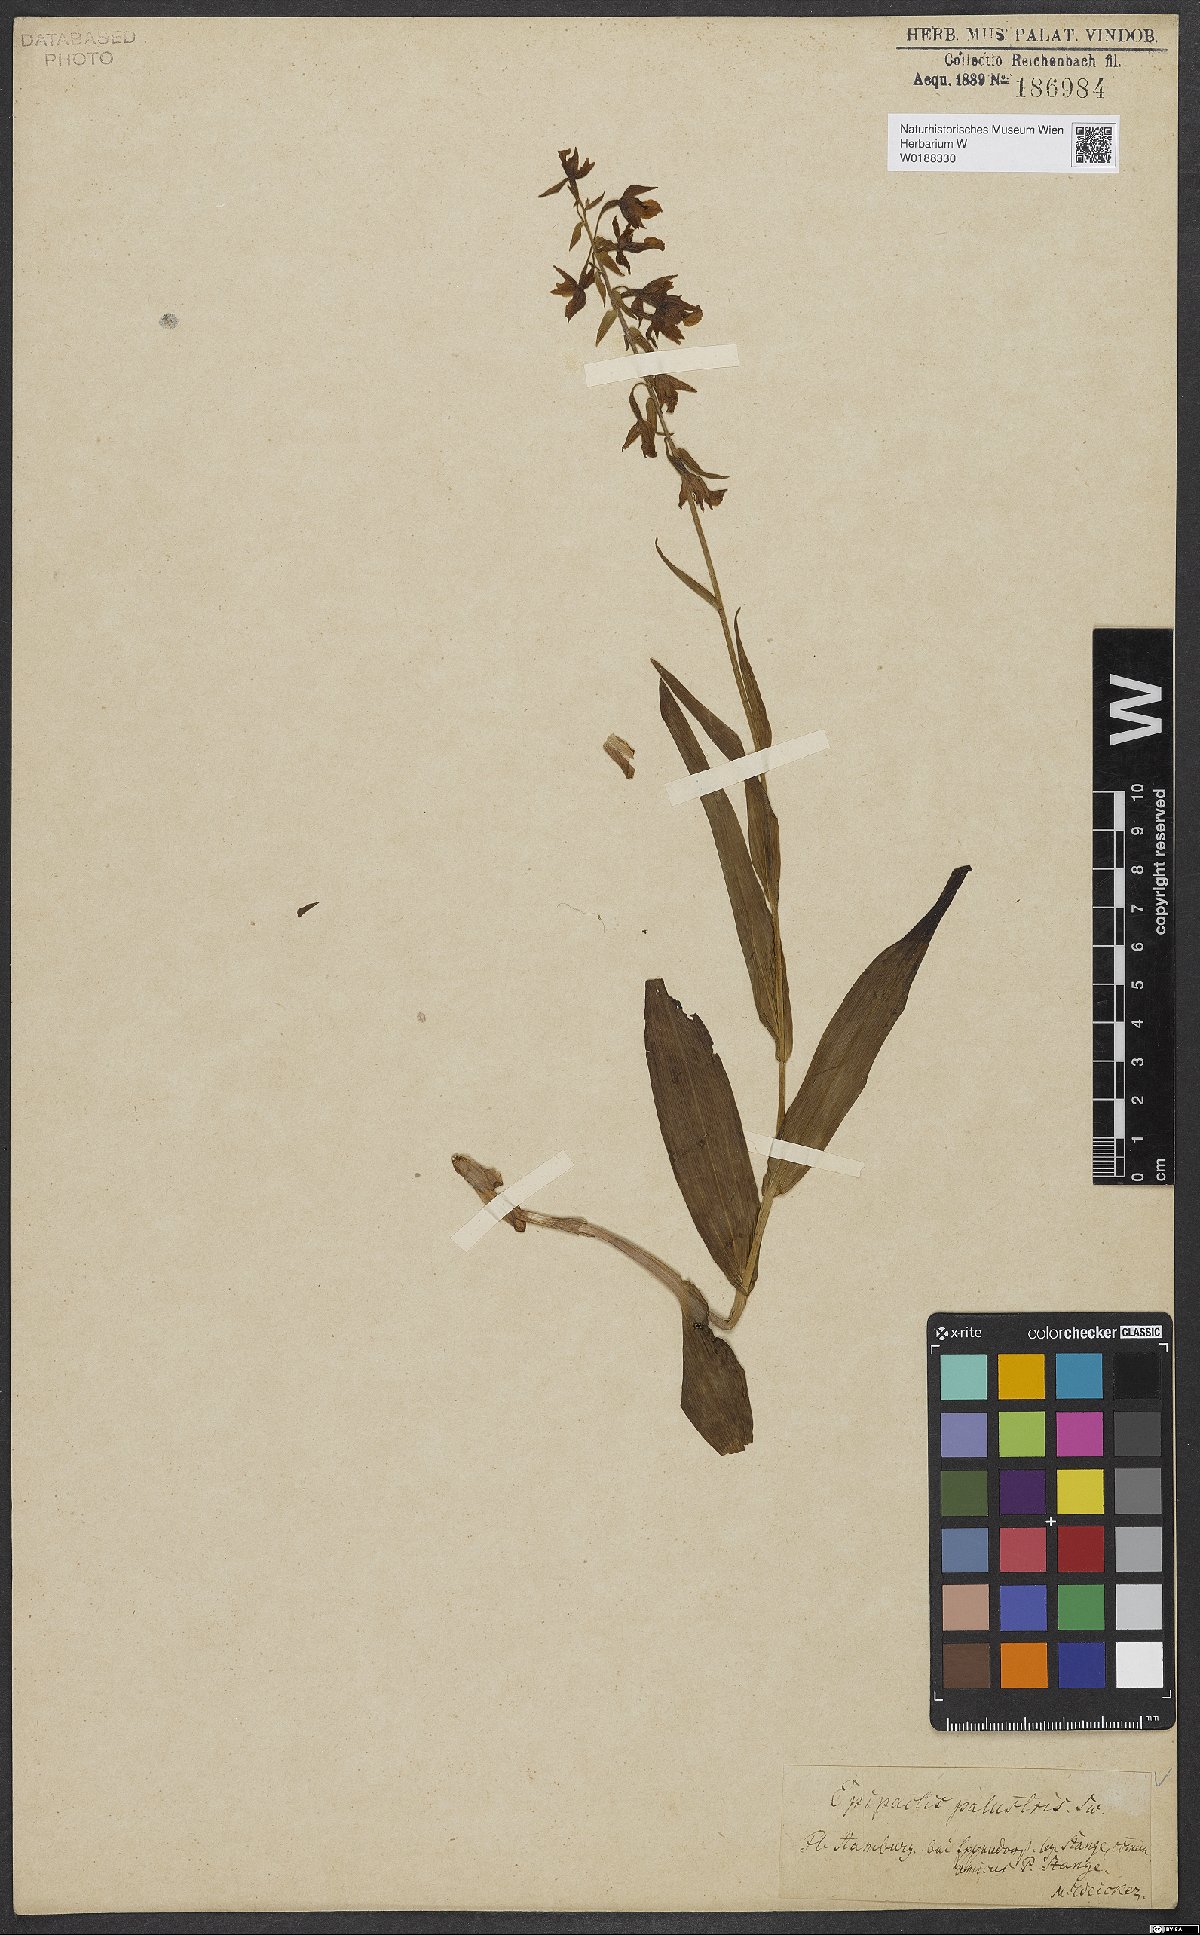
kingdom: Plantae
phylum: Tracheophyta
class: Liliopsida
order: Asparagales
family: Orchidaceae
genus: Epipactis
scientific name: Epipactis palustris
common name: Marsh helleborine
